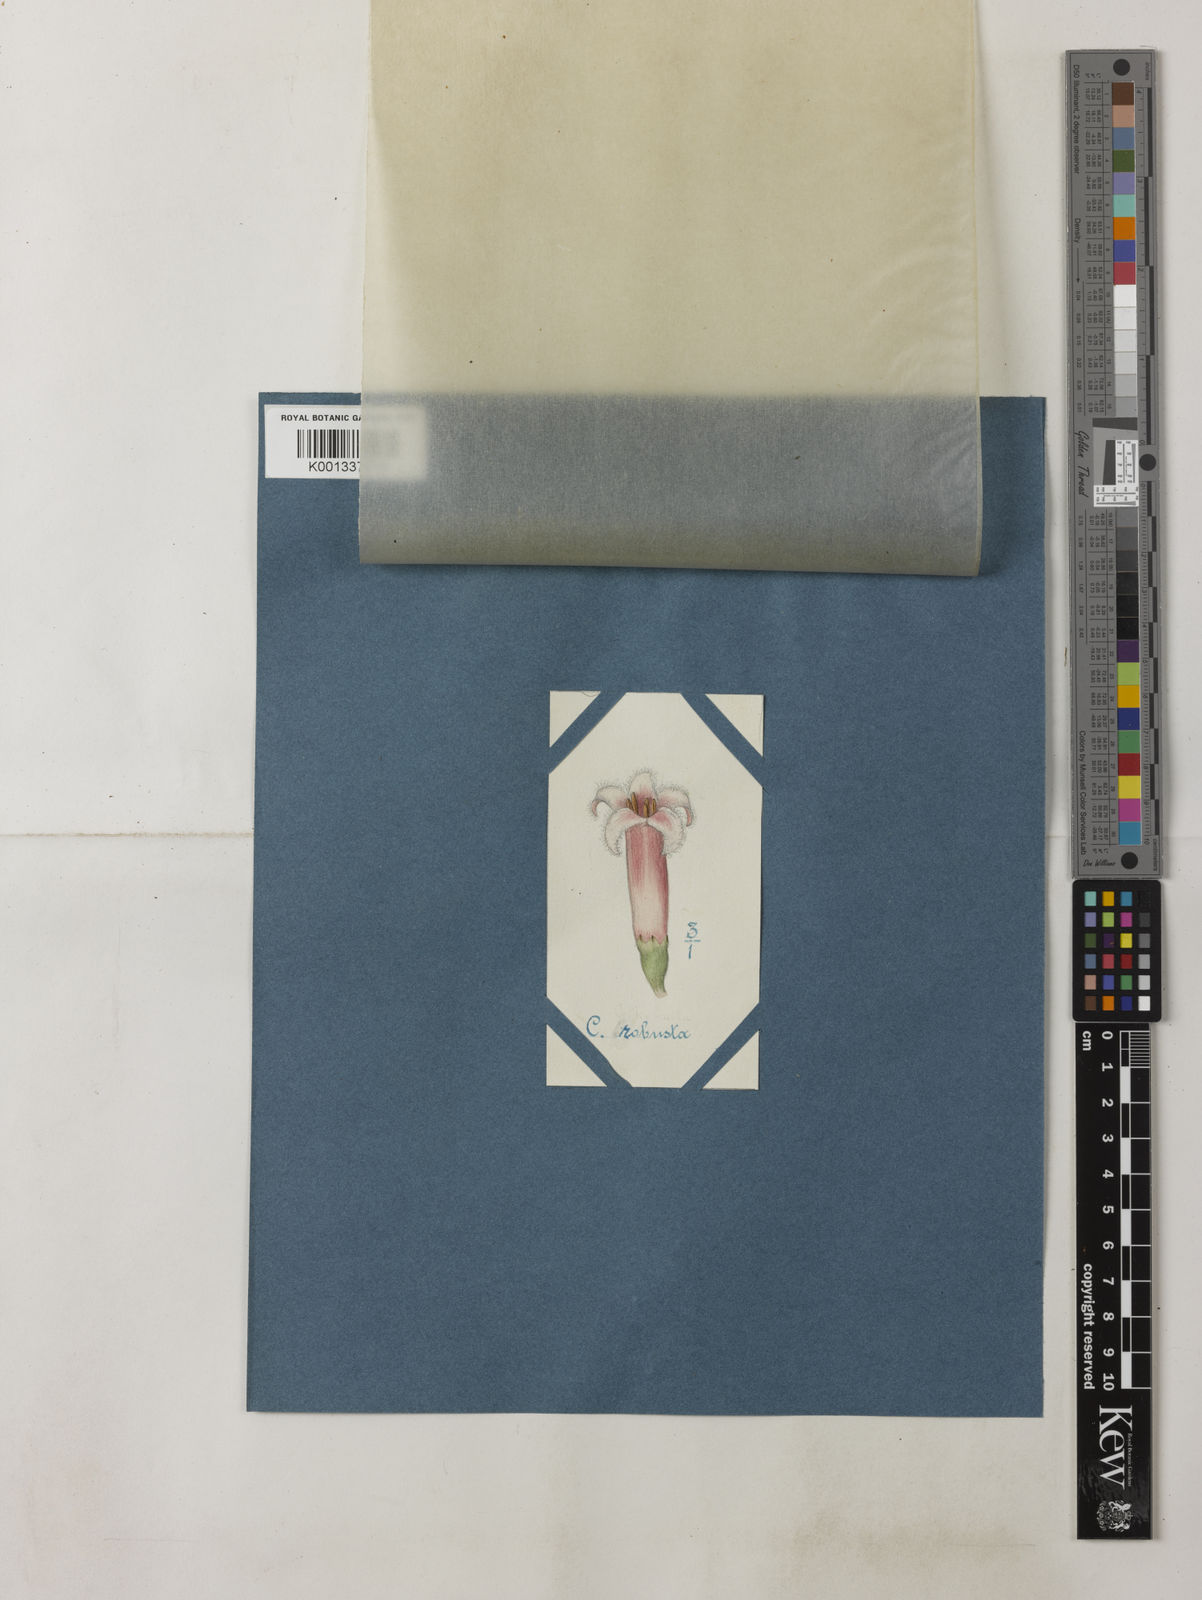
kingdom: Plantae
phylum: Tracheophyta
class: Magnoliopsida
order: Gentianales
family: Rubiaceae
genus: Cinchona
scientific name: Cinchona officinalis
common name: Lojabark
